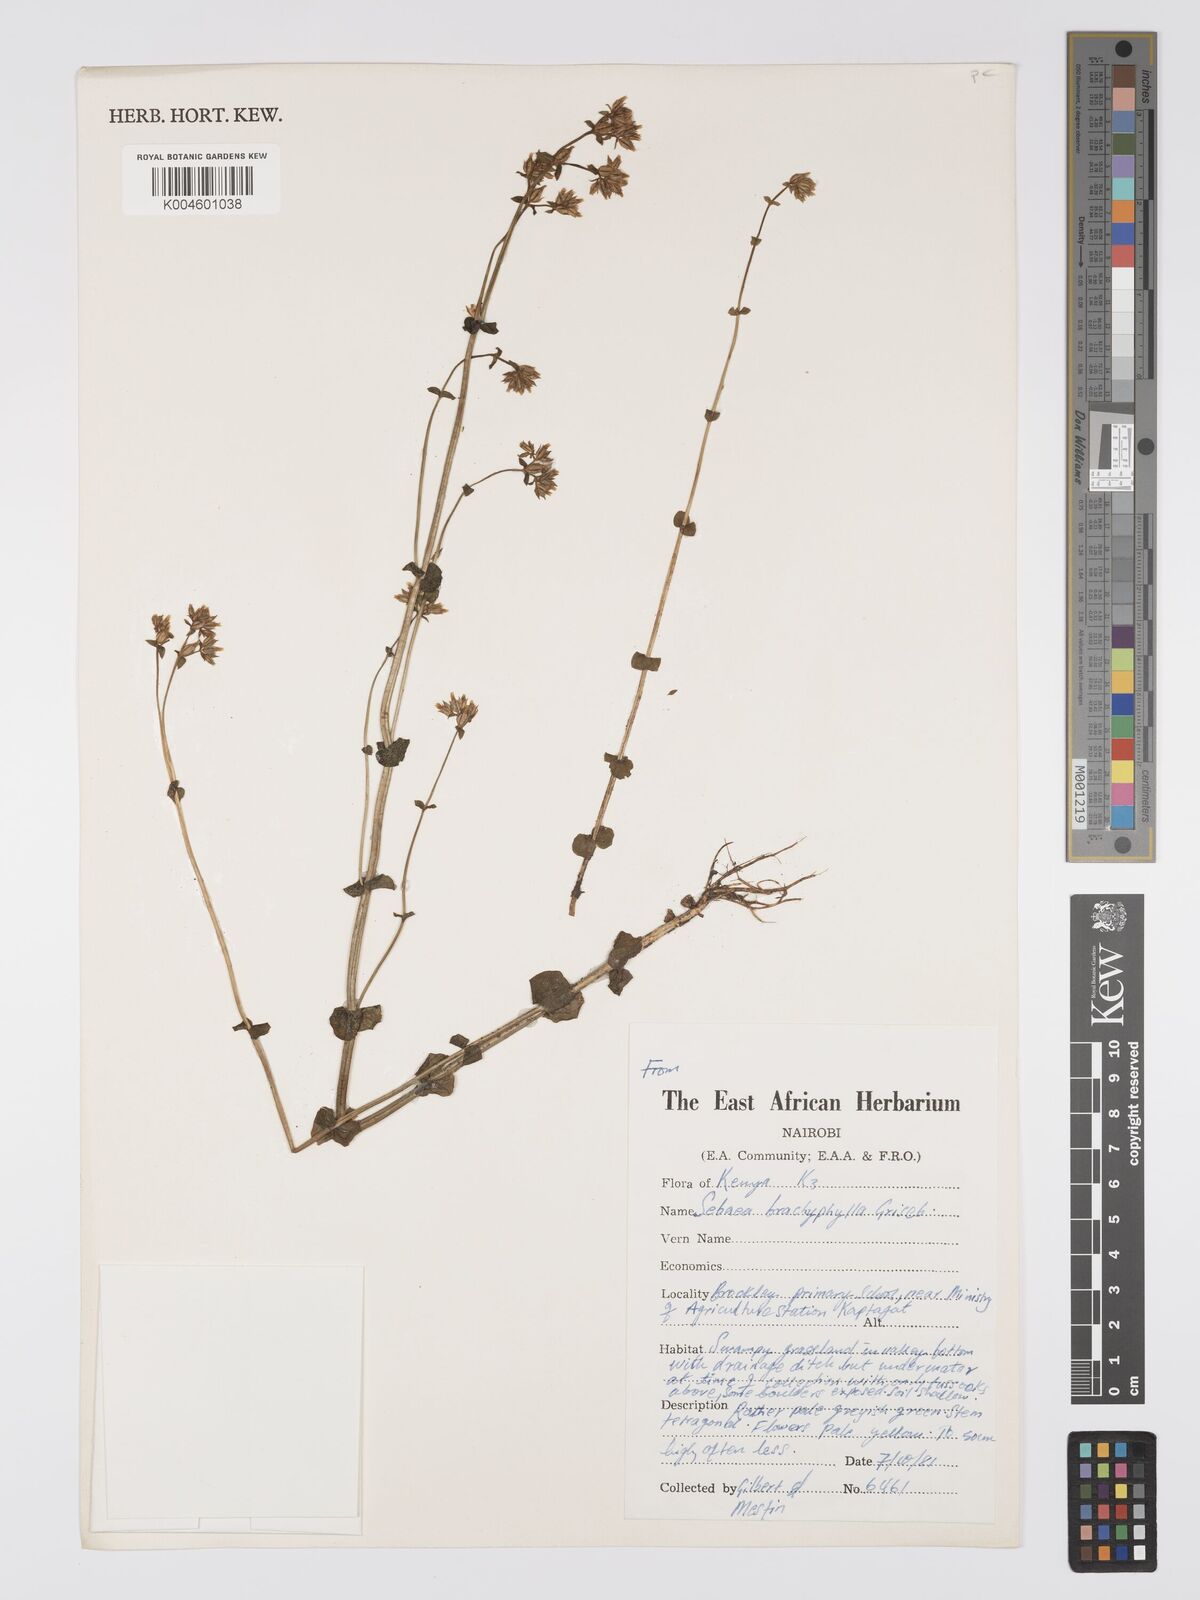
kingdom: Plantae
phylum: Tracheophyta
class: Magnoliopsida
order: Gentianales
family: Gentianaceae
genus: Sebaea
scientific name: Sebaea brachyphylla
